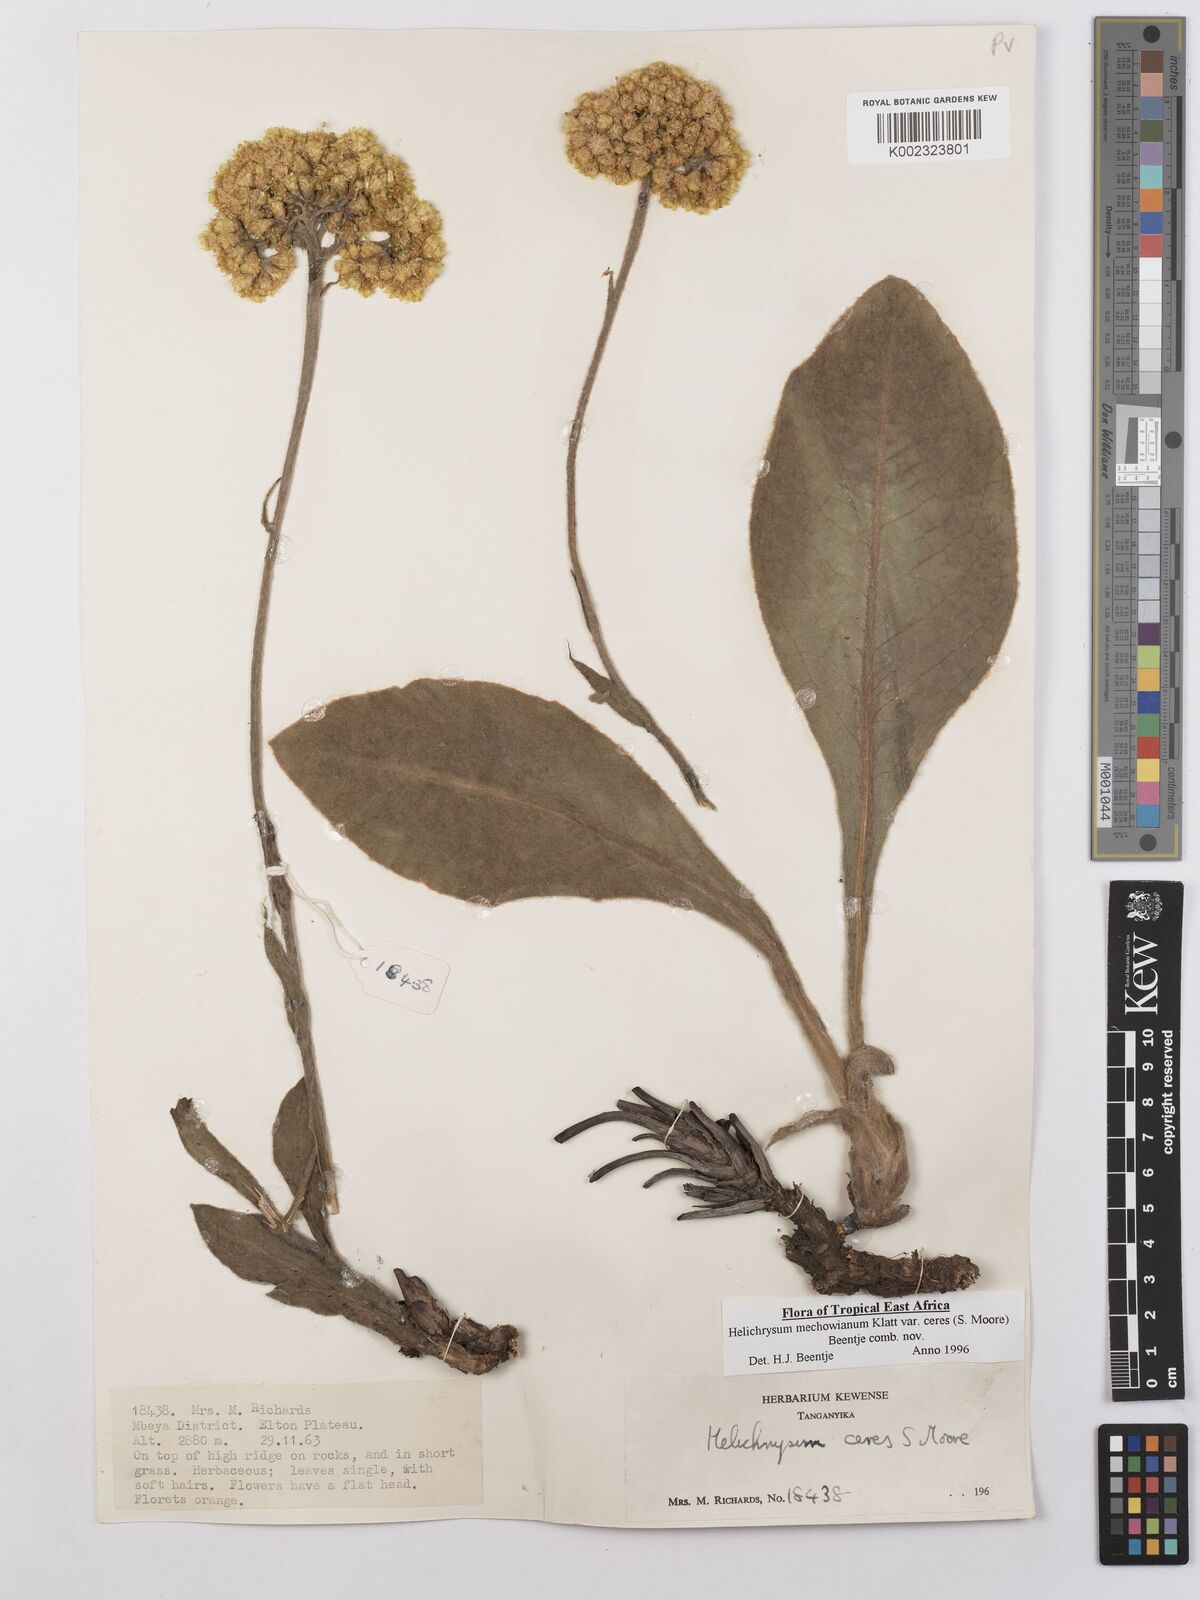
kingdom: Plantae
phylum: Tracheophyta
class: Magnoliopsida
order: Asterales
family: Asteraceae
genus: Helichrysum
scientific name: Helichrysum mechowianum
